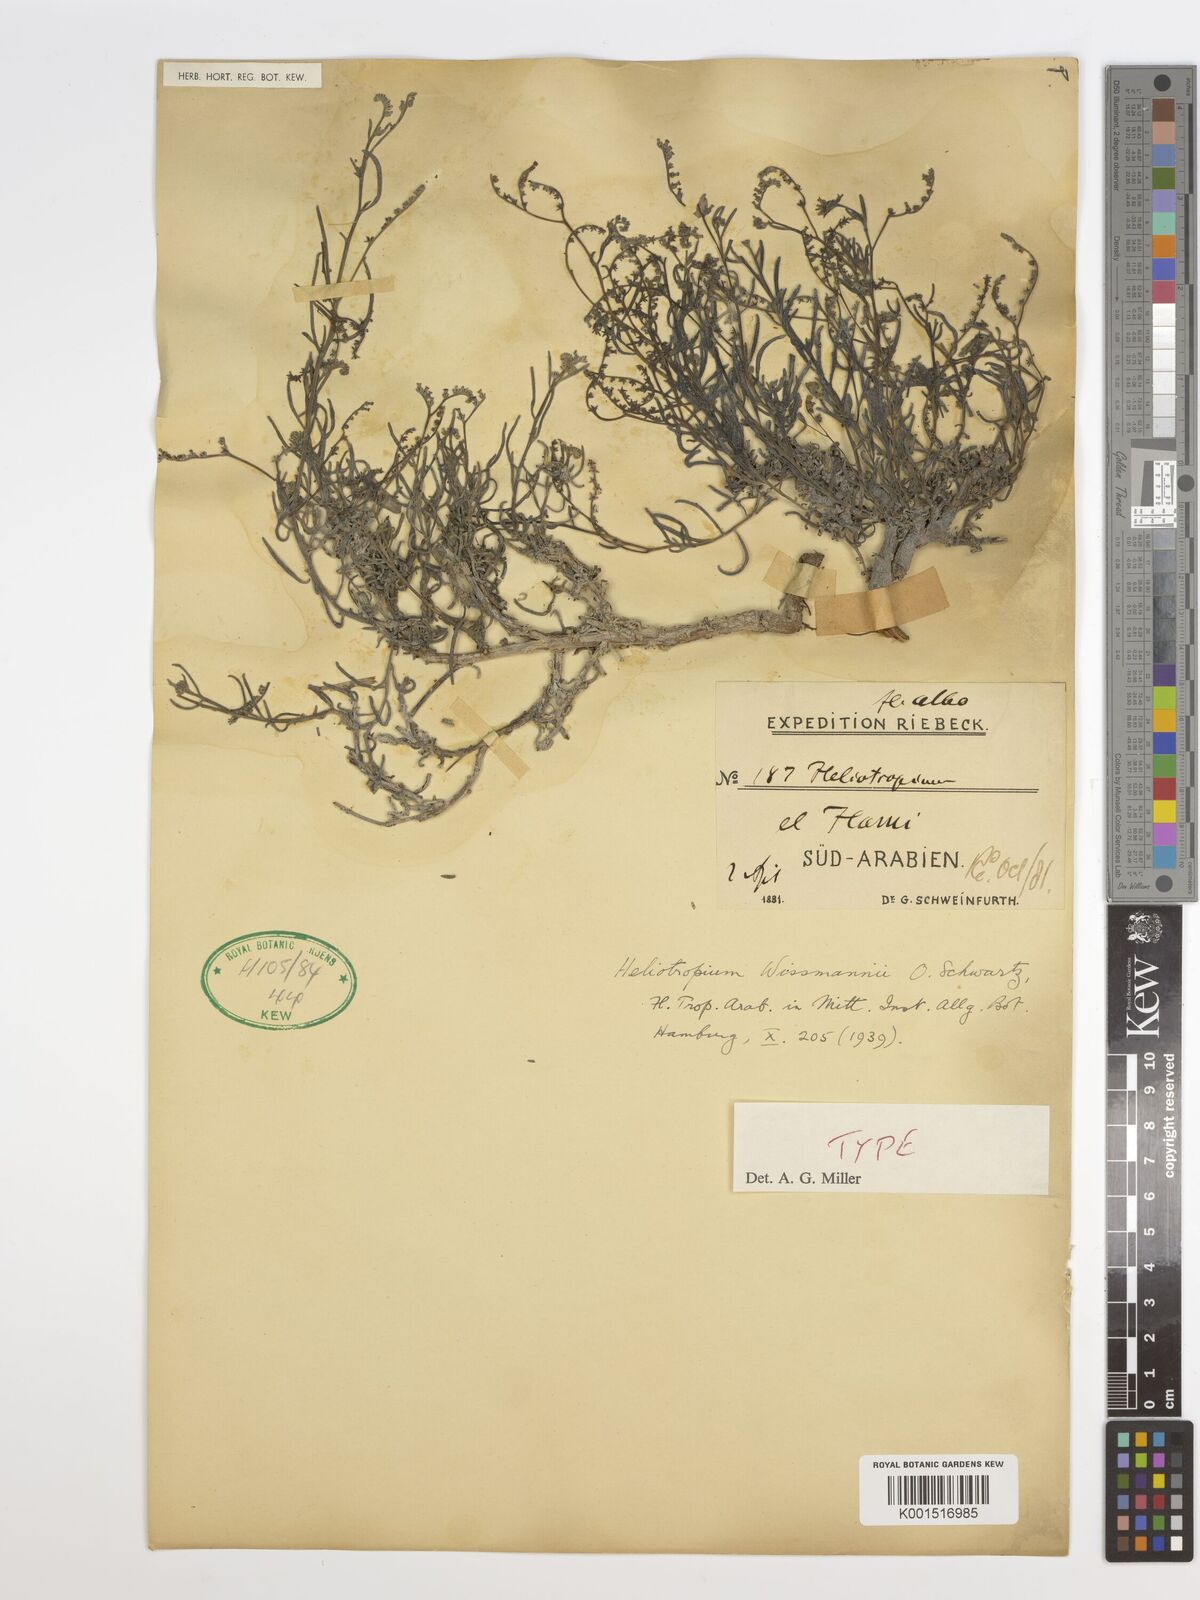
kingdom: Plantae
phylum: Tracheophyta
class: Magnoliopsida
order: Boraginales
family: Heliotropiaceae
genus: Heliotropium
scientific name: Heliotropium wissmannii
